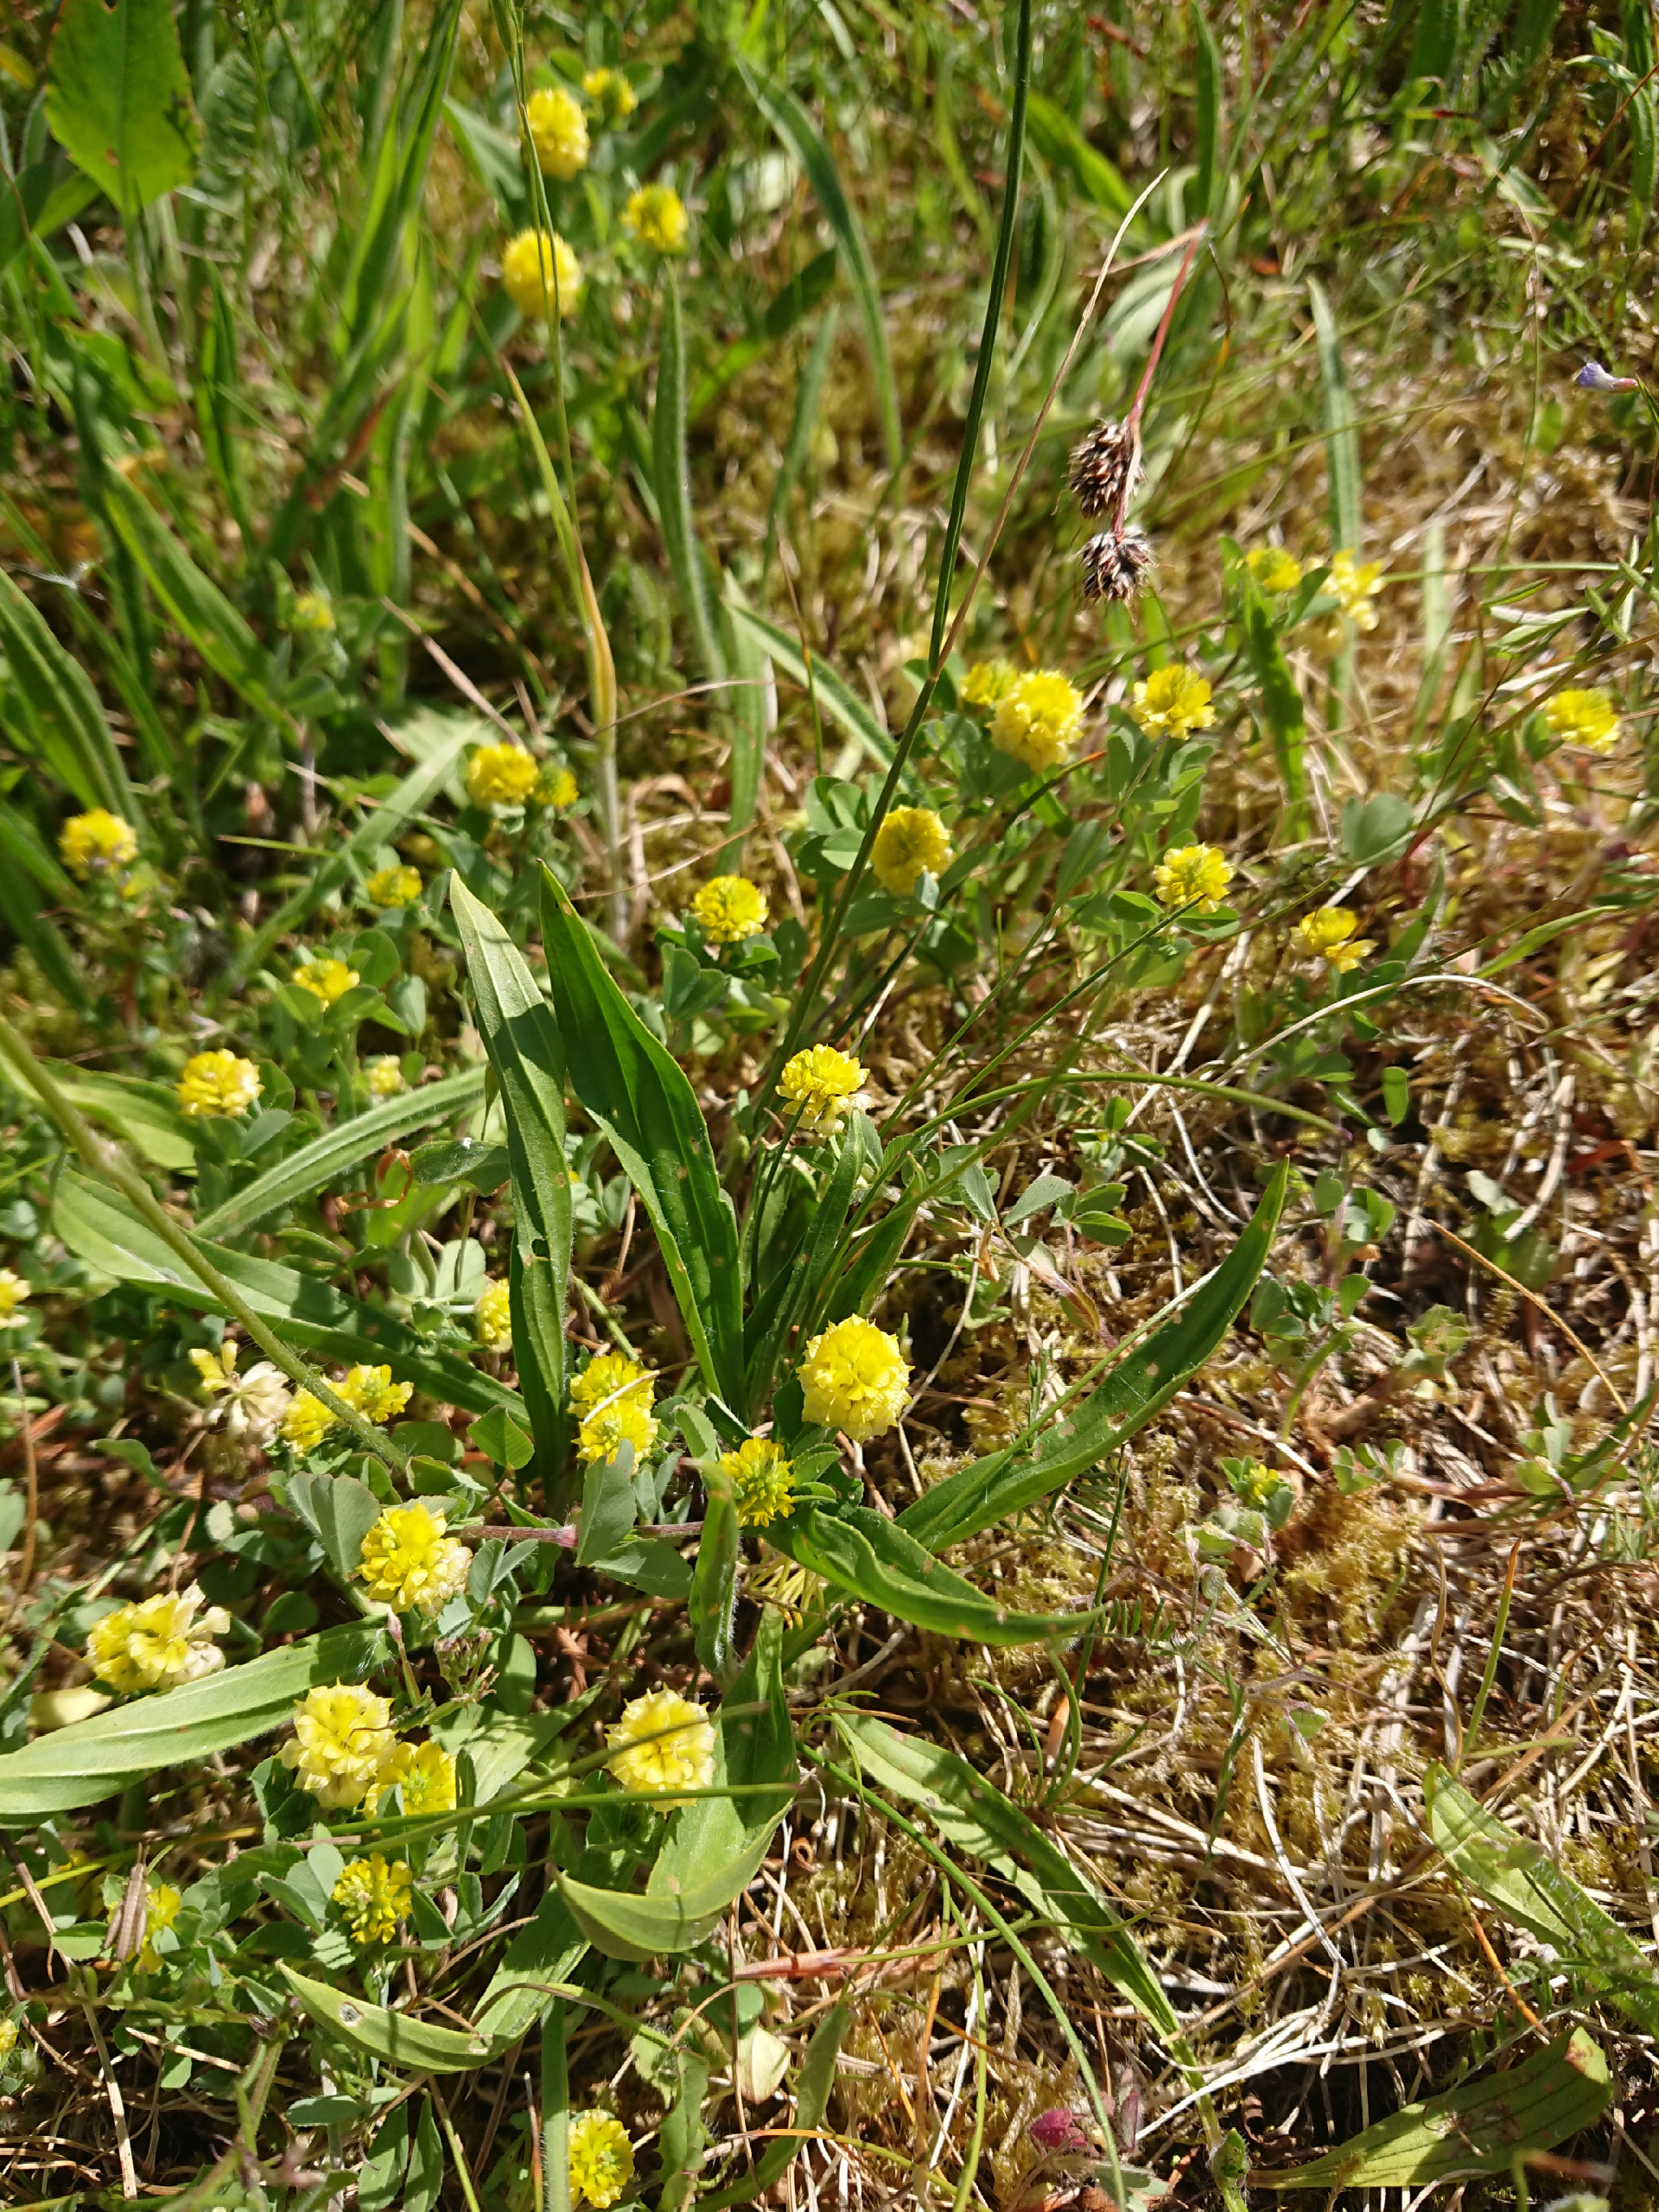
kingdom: Plantae
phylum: Tracheophyta
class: Magnoliopsida
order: Fabales
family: Fabaceae
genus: Trifolium
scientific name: Trifolium campestre
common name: Gul kløver
